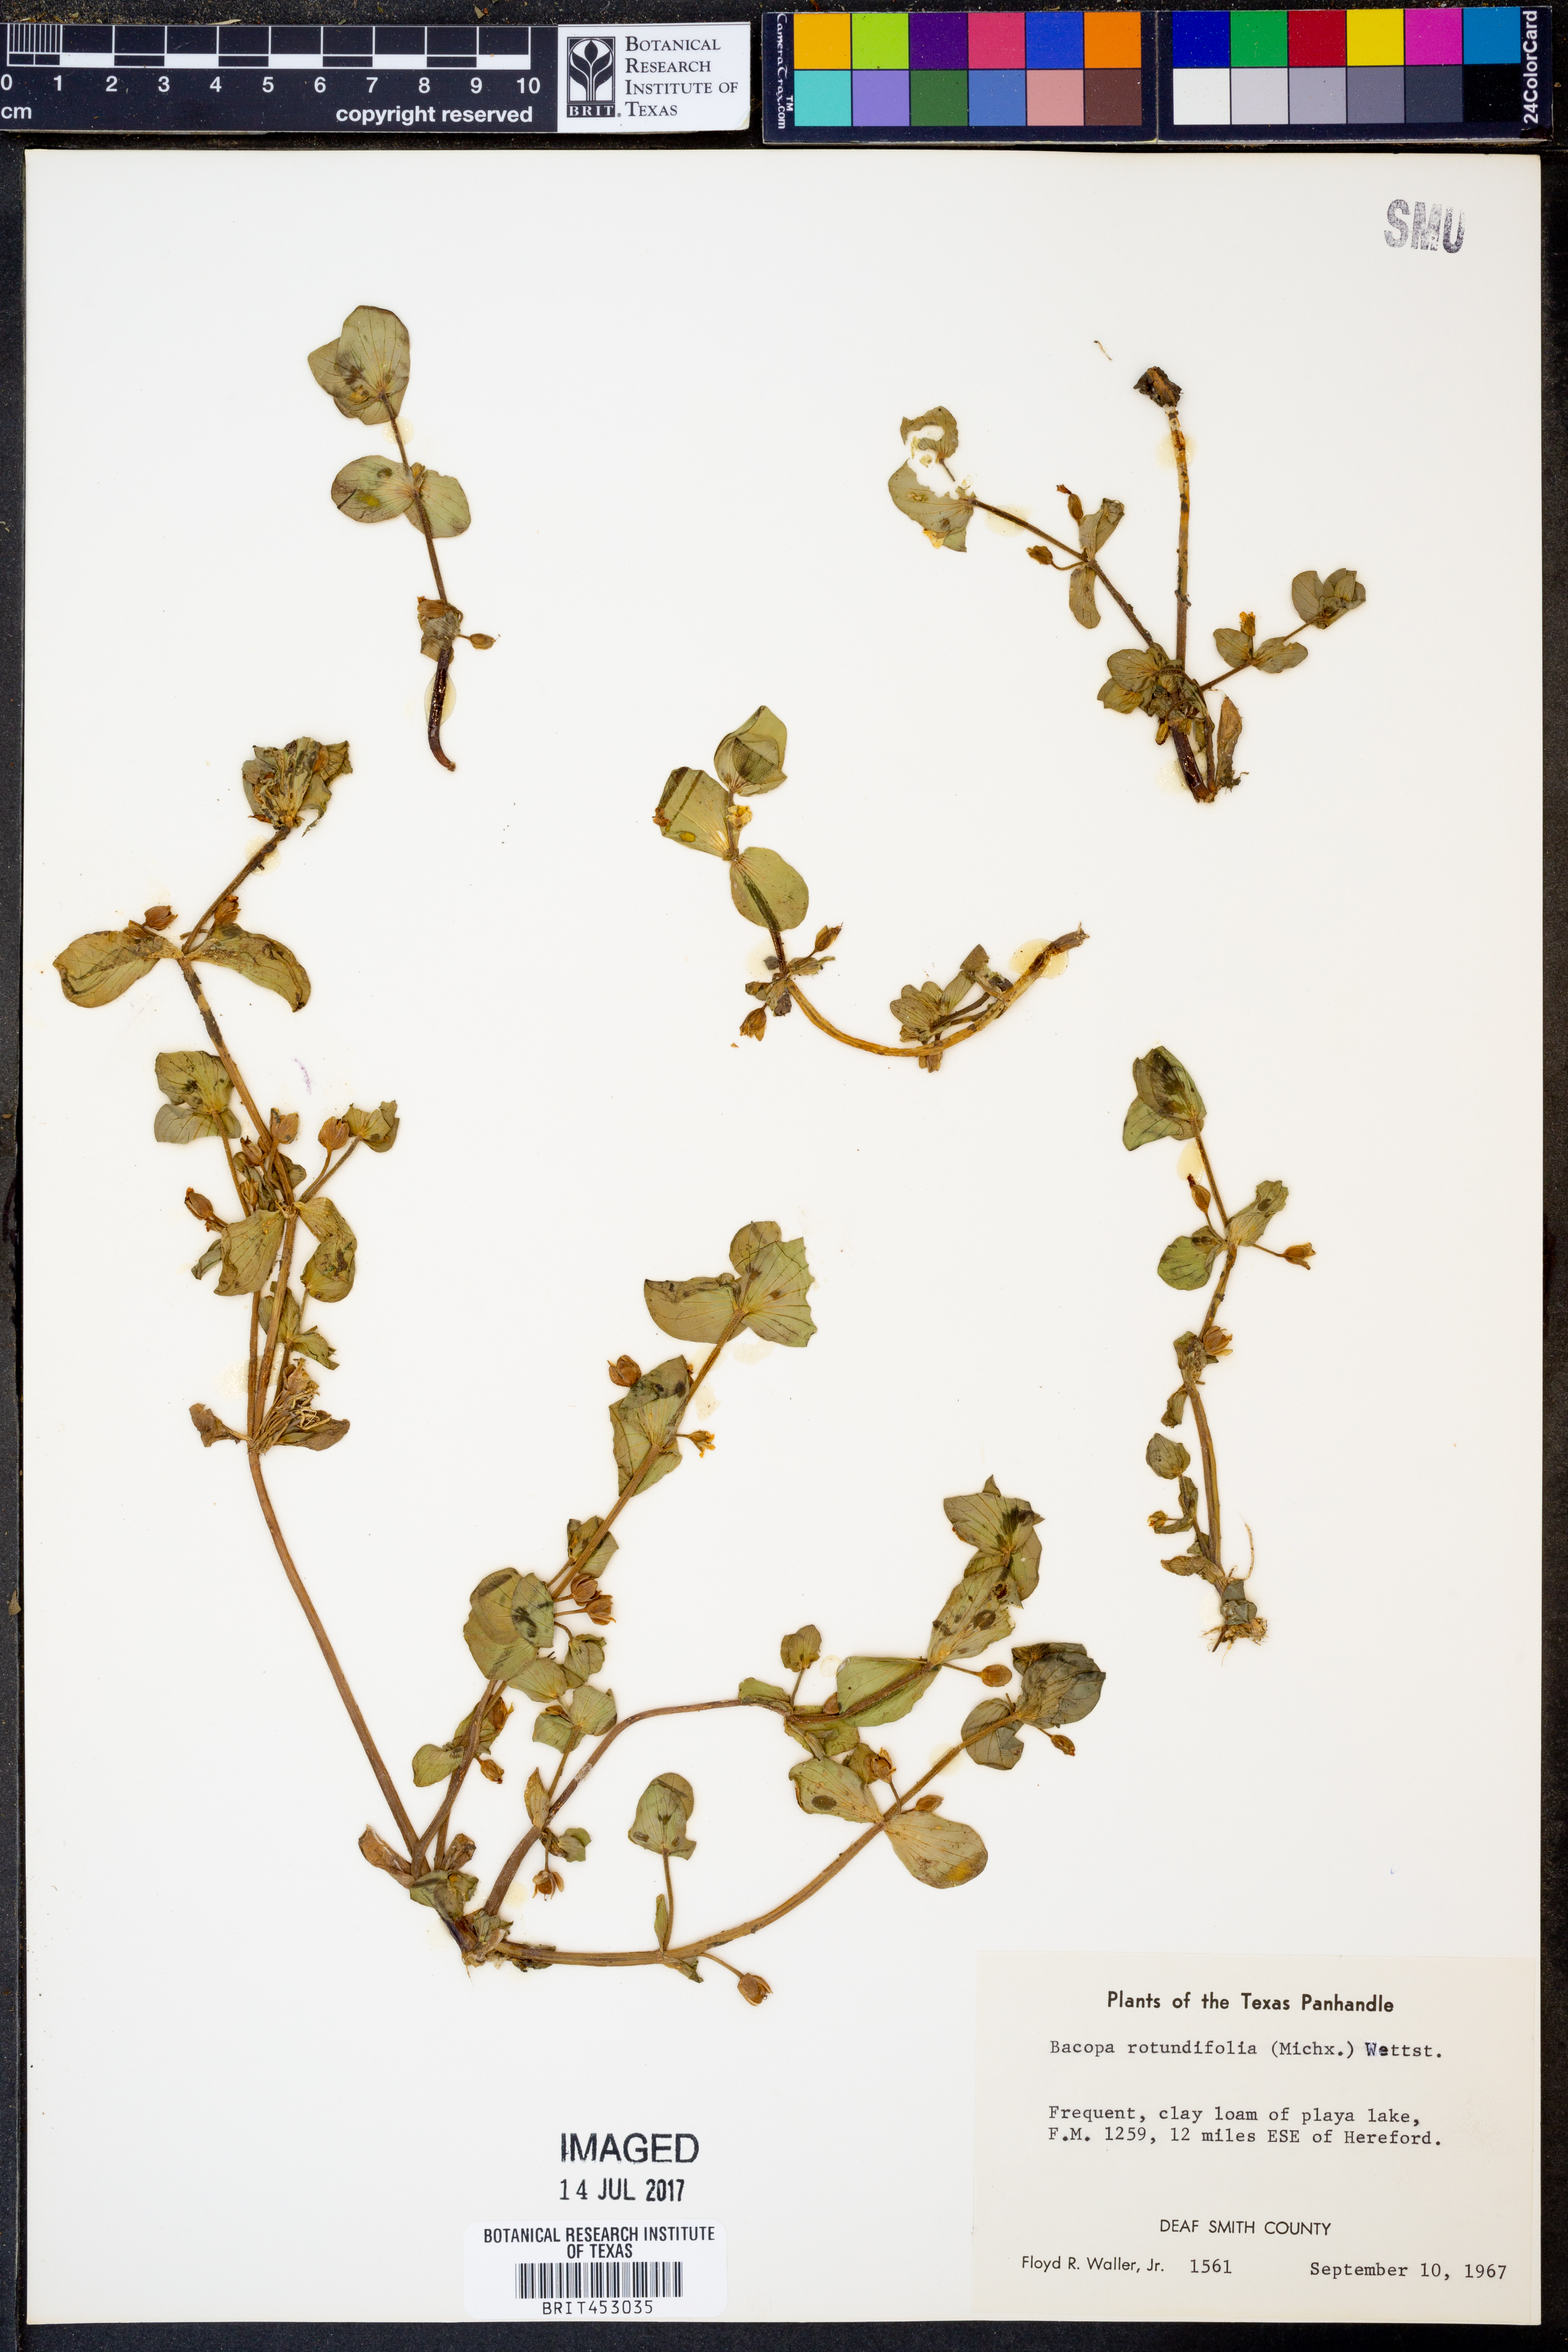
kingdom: Plantae
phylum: Tracheophyta
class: Magnoliopsida
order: Lamiales
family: Plantaginaceae
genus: Bacopa
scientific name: Bacopa rotundifolia
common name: Disc water hyssop
